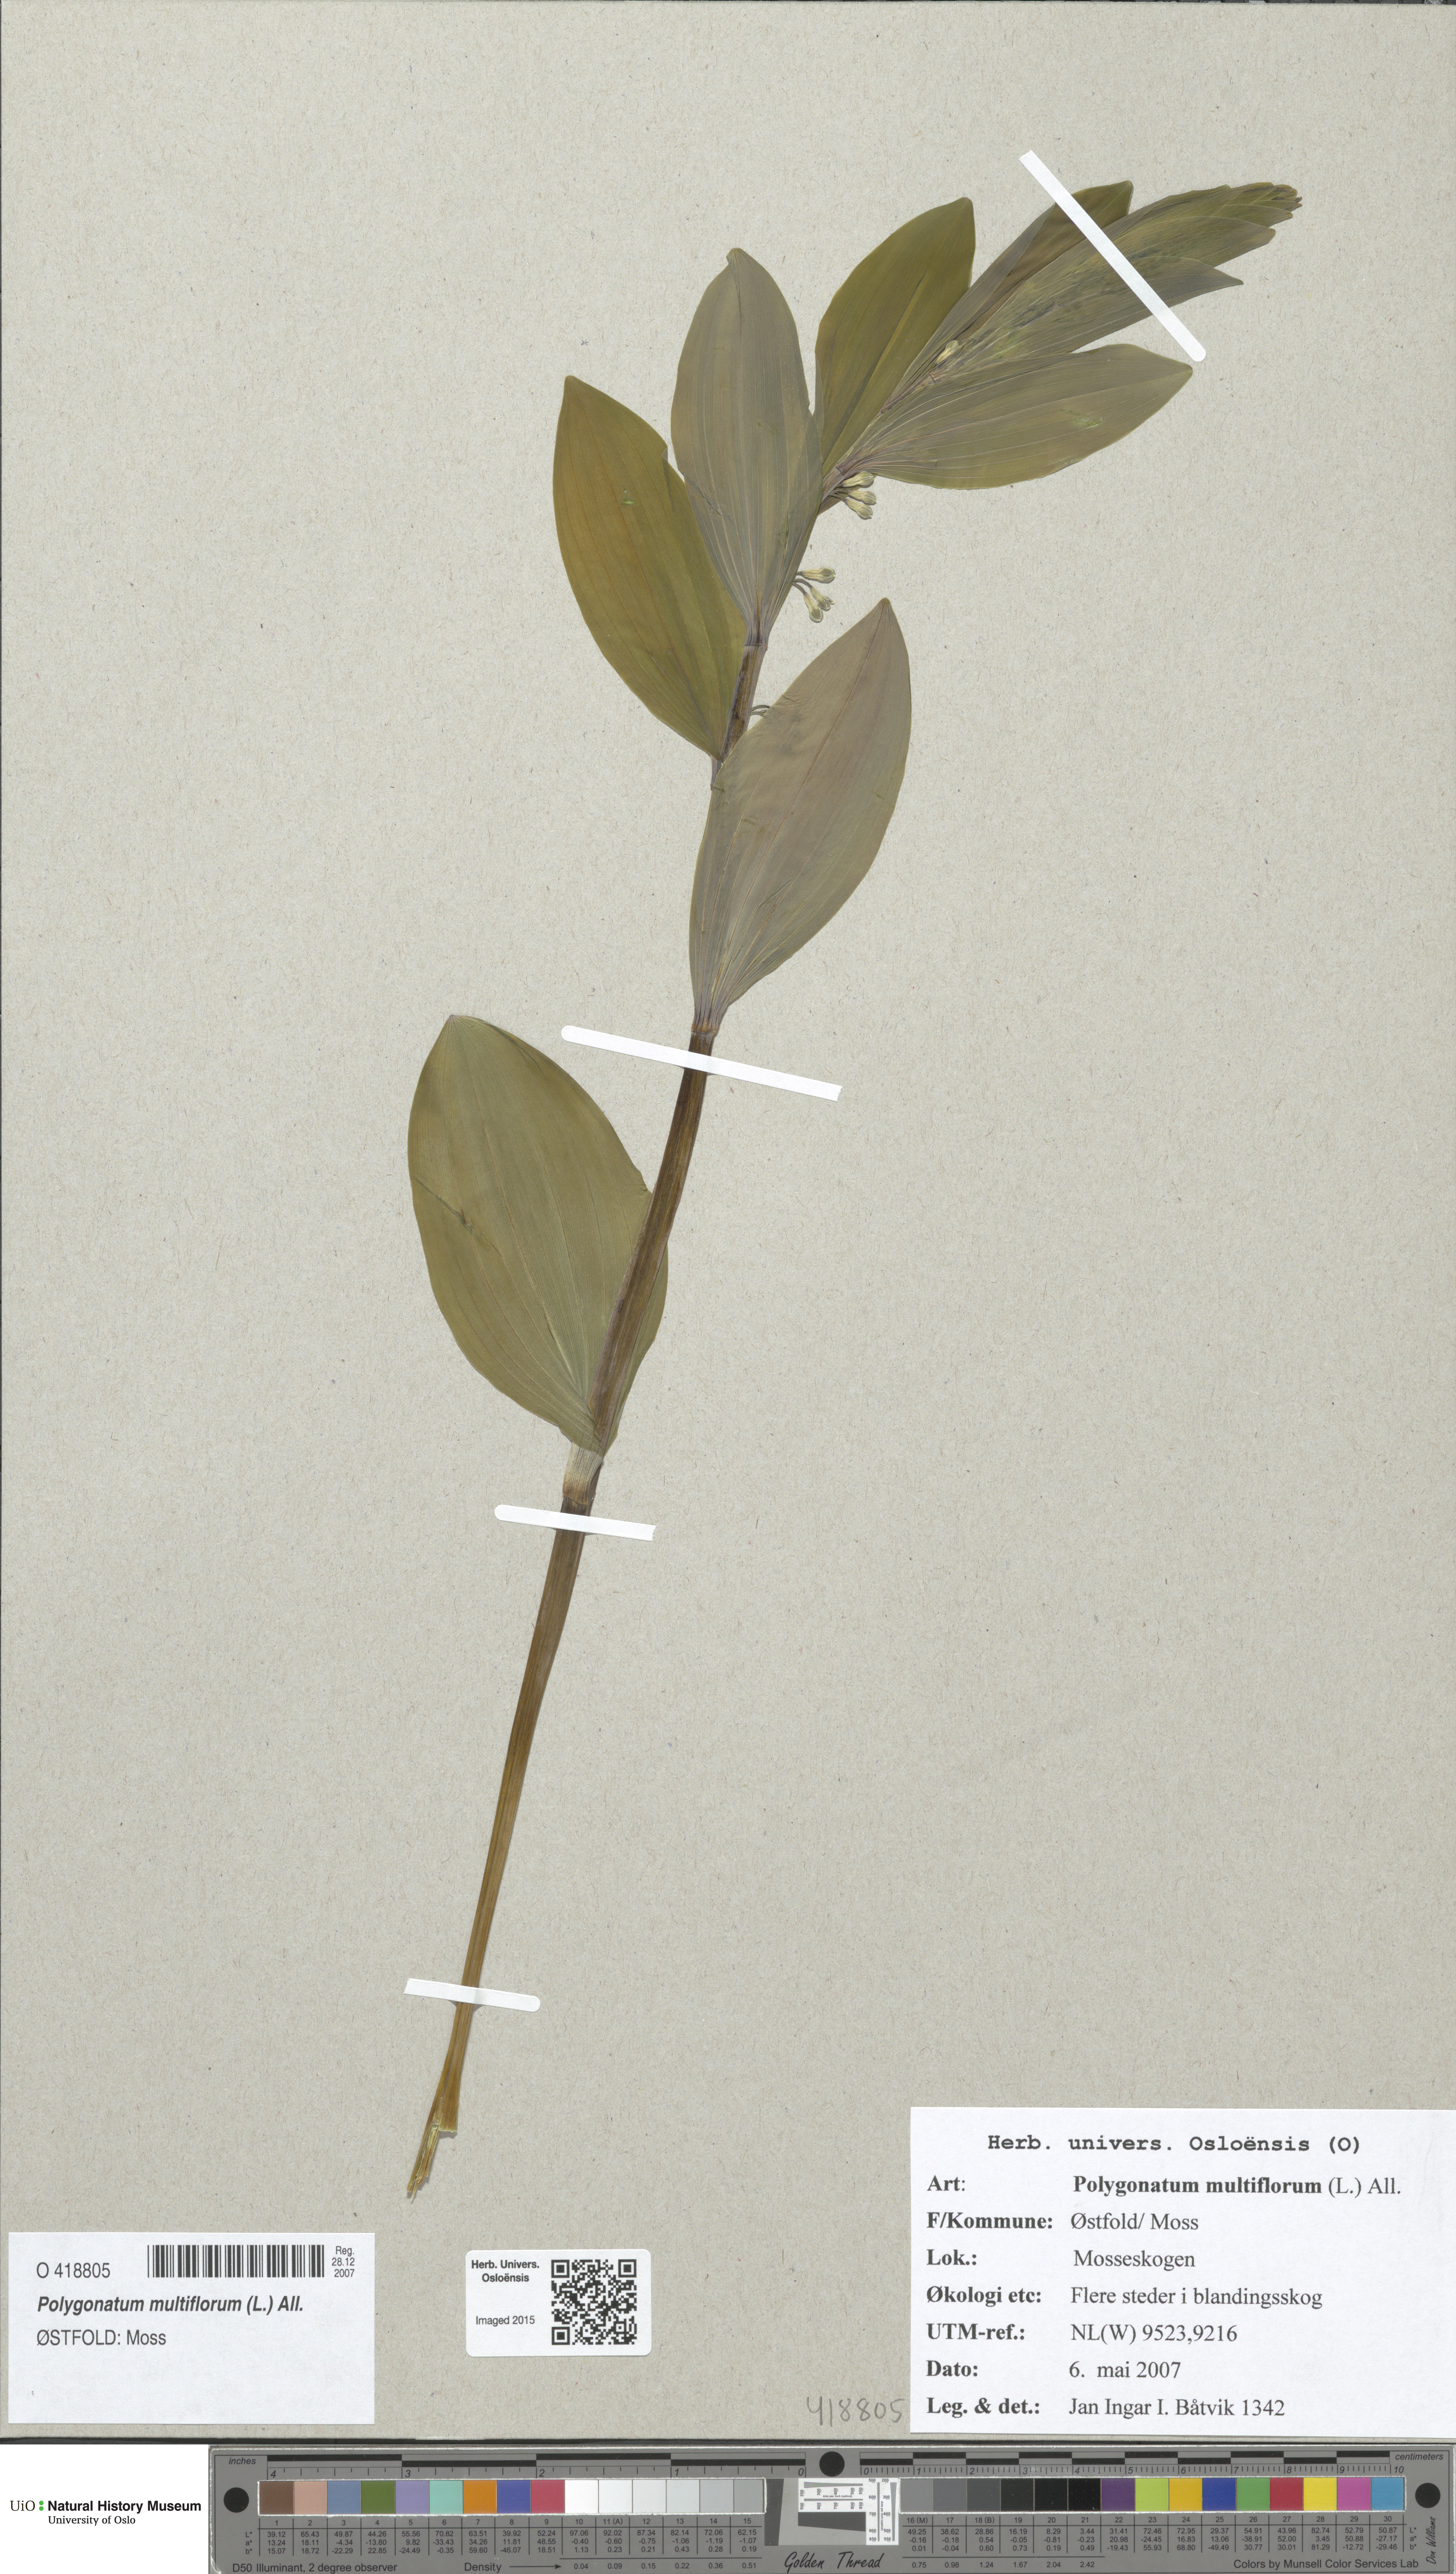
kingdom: Plantae
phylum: Tracheophyta
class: Liliopsida
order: Asparagales
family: Asparagaceae
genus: Polygonatum
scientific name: Polygonatum multiflorum
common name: Solomon's-seal
